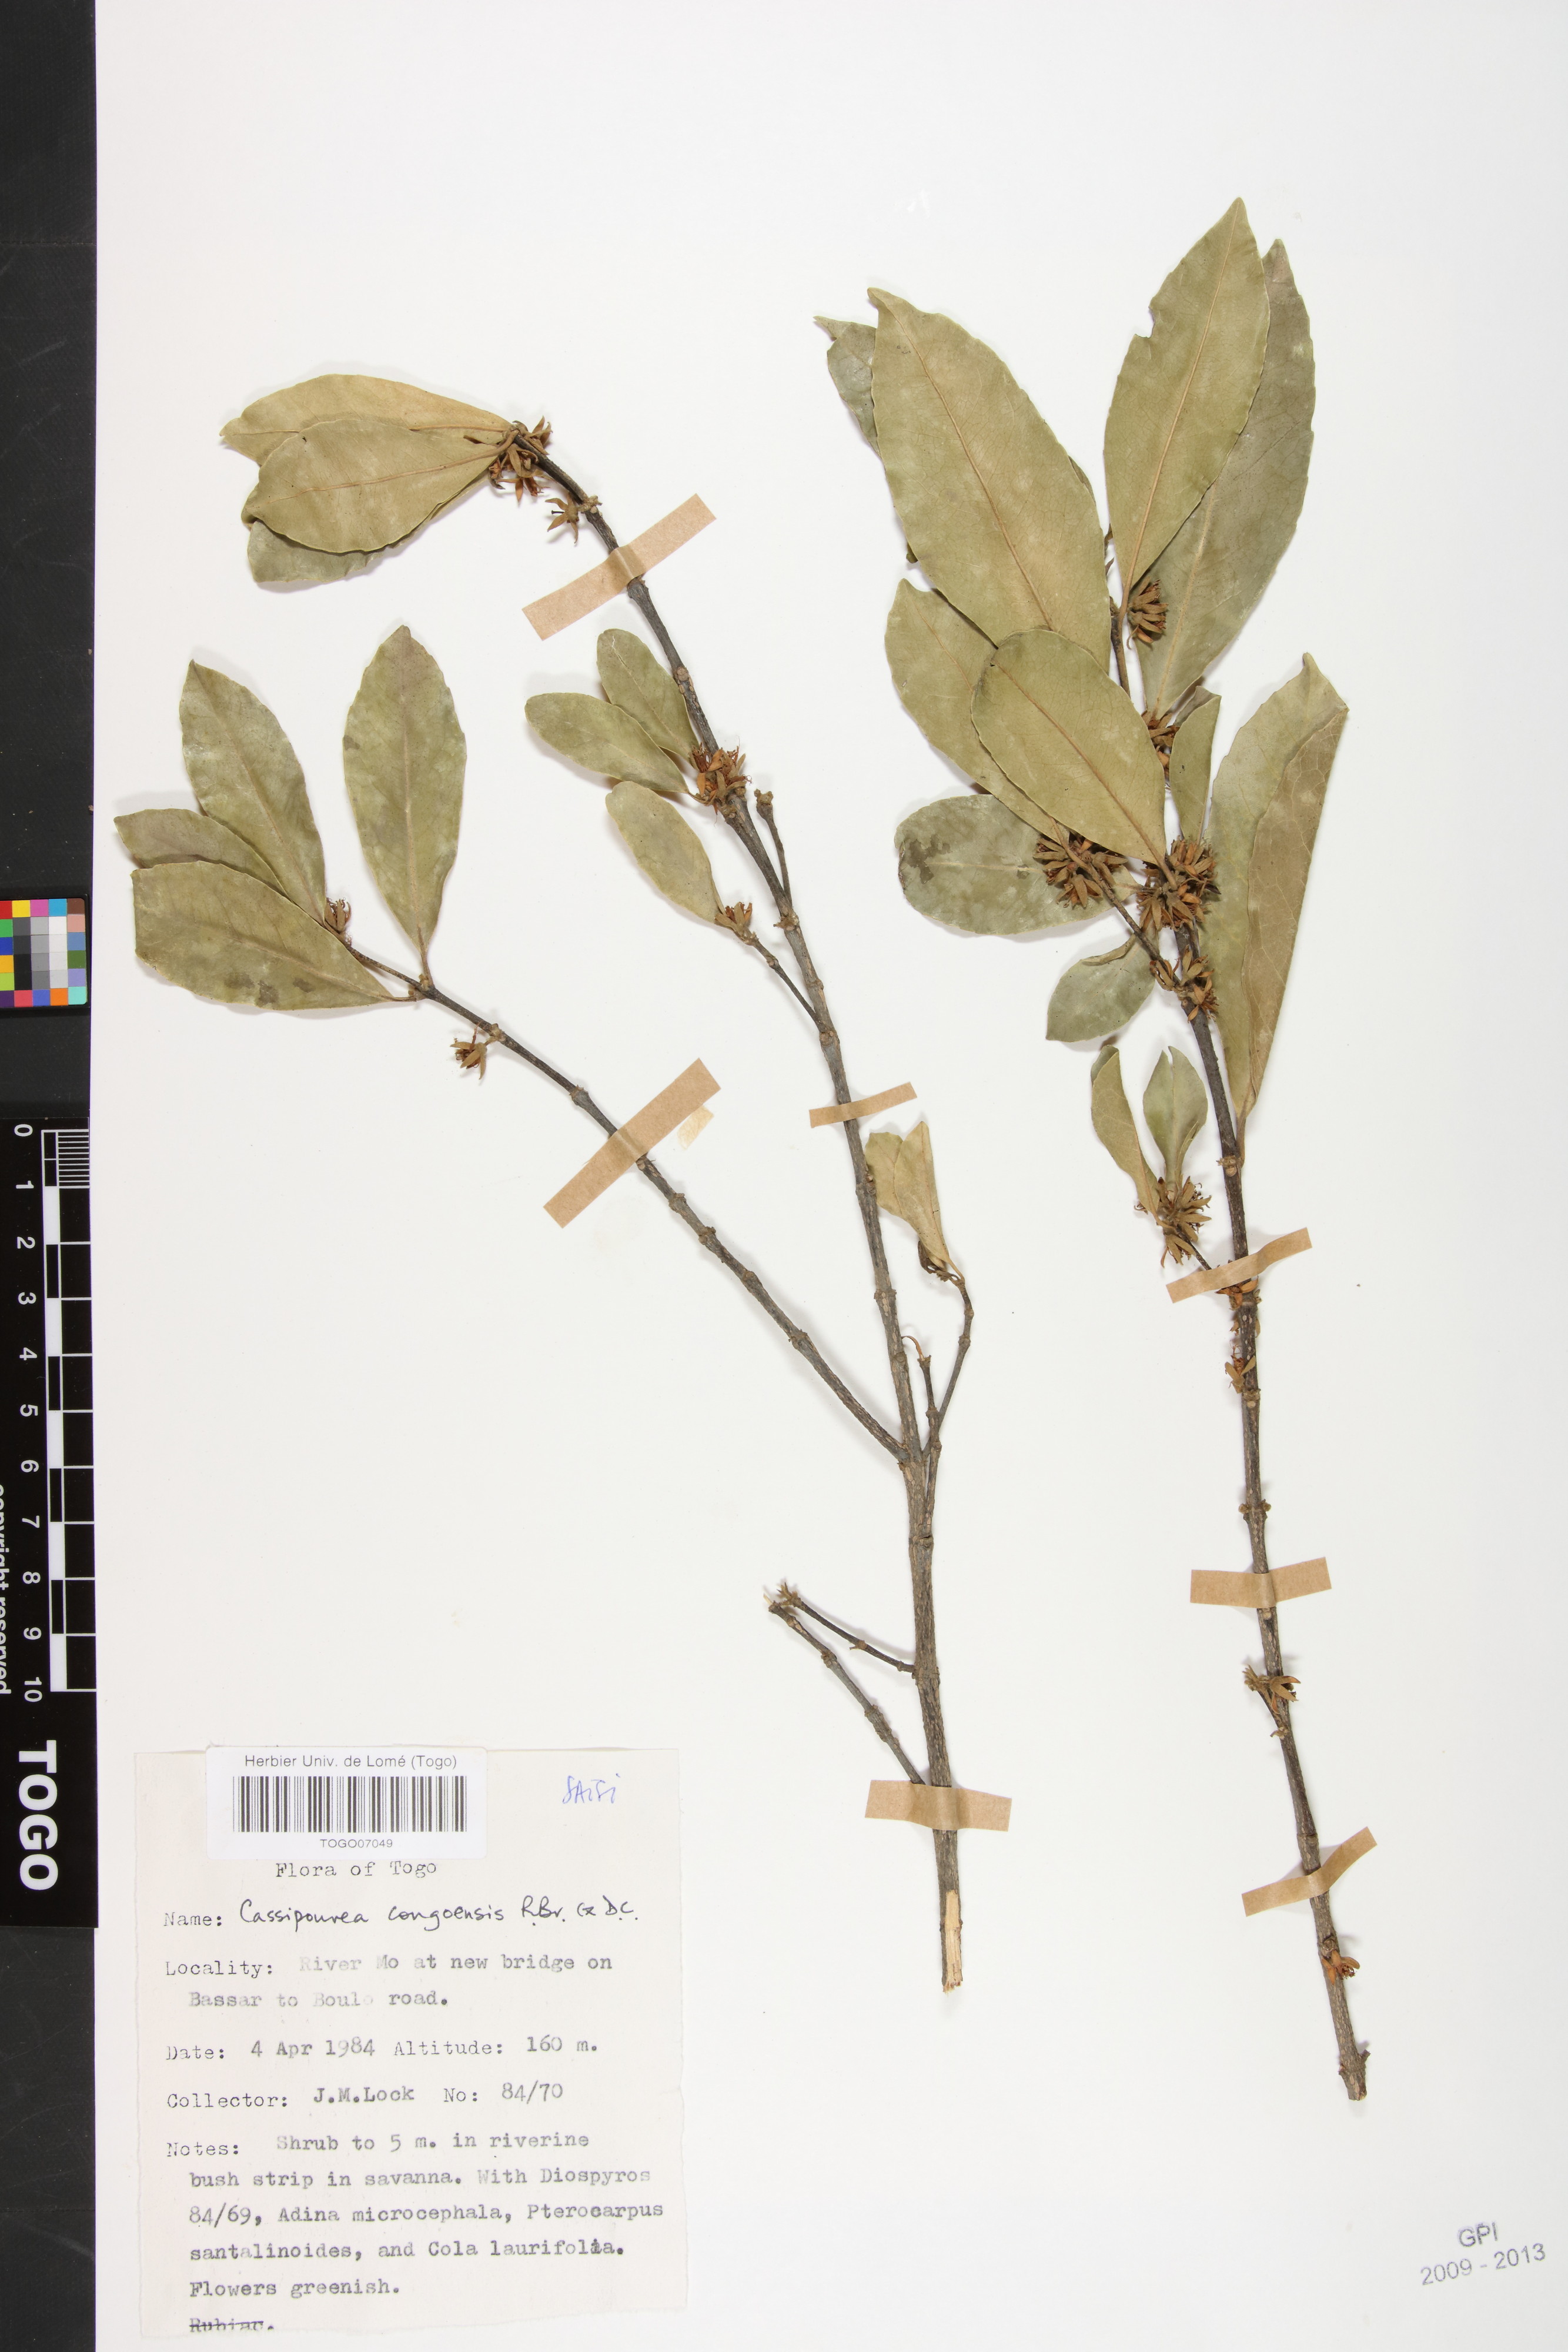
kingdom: Plantae
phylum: Tracheophyta
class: Magnoliopsida
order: Malpighiales
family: Rhizophoraceae
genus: Cassipourea
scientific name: Cassipourea congoensis
